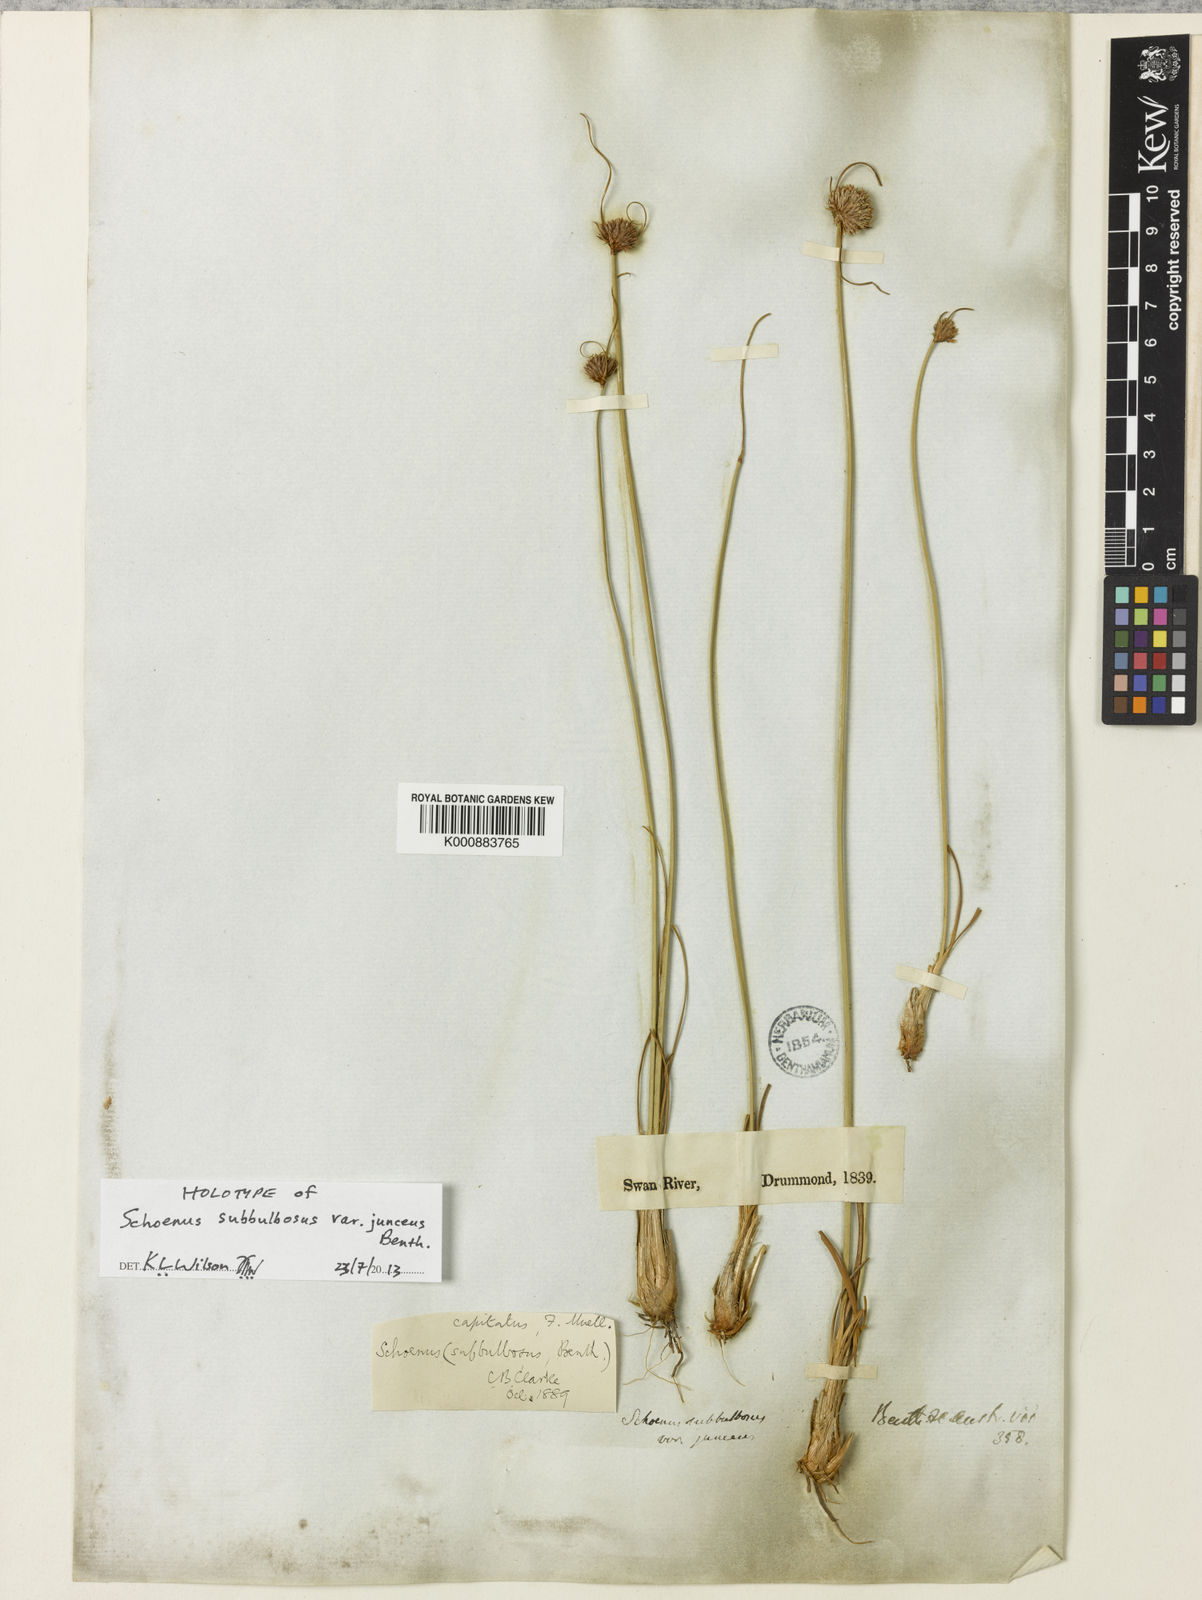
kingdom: Plantae
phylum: Tracheophyta
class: Liliopsida
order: Poales
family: Cyperaceae
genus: Schoenus
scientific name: Schoenus subbulbosus
